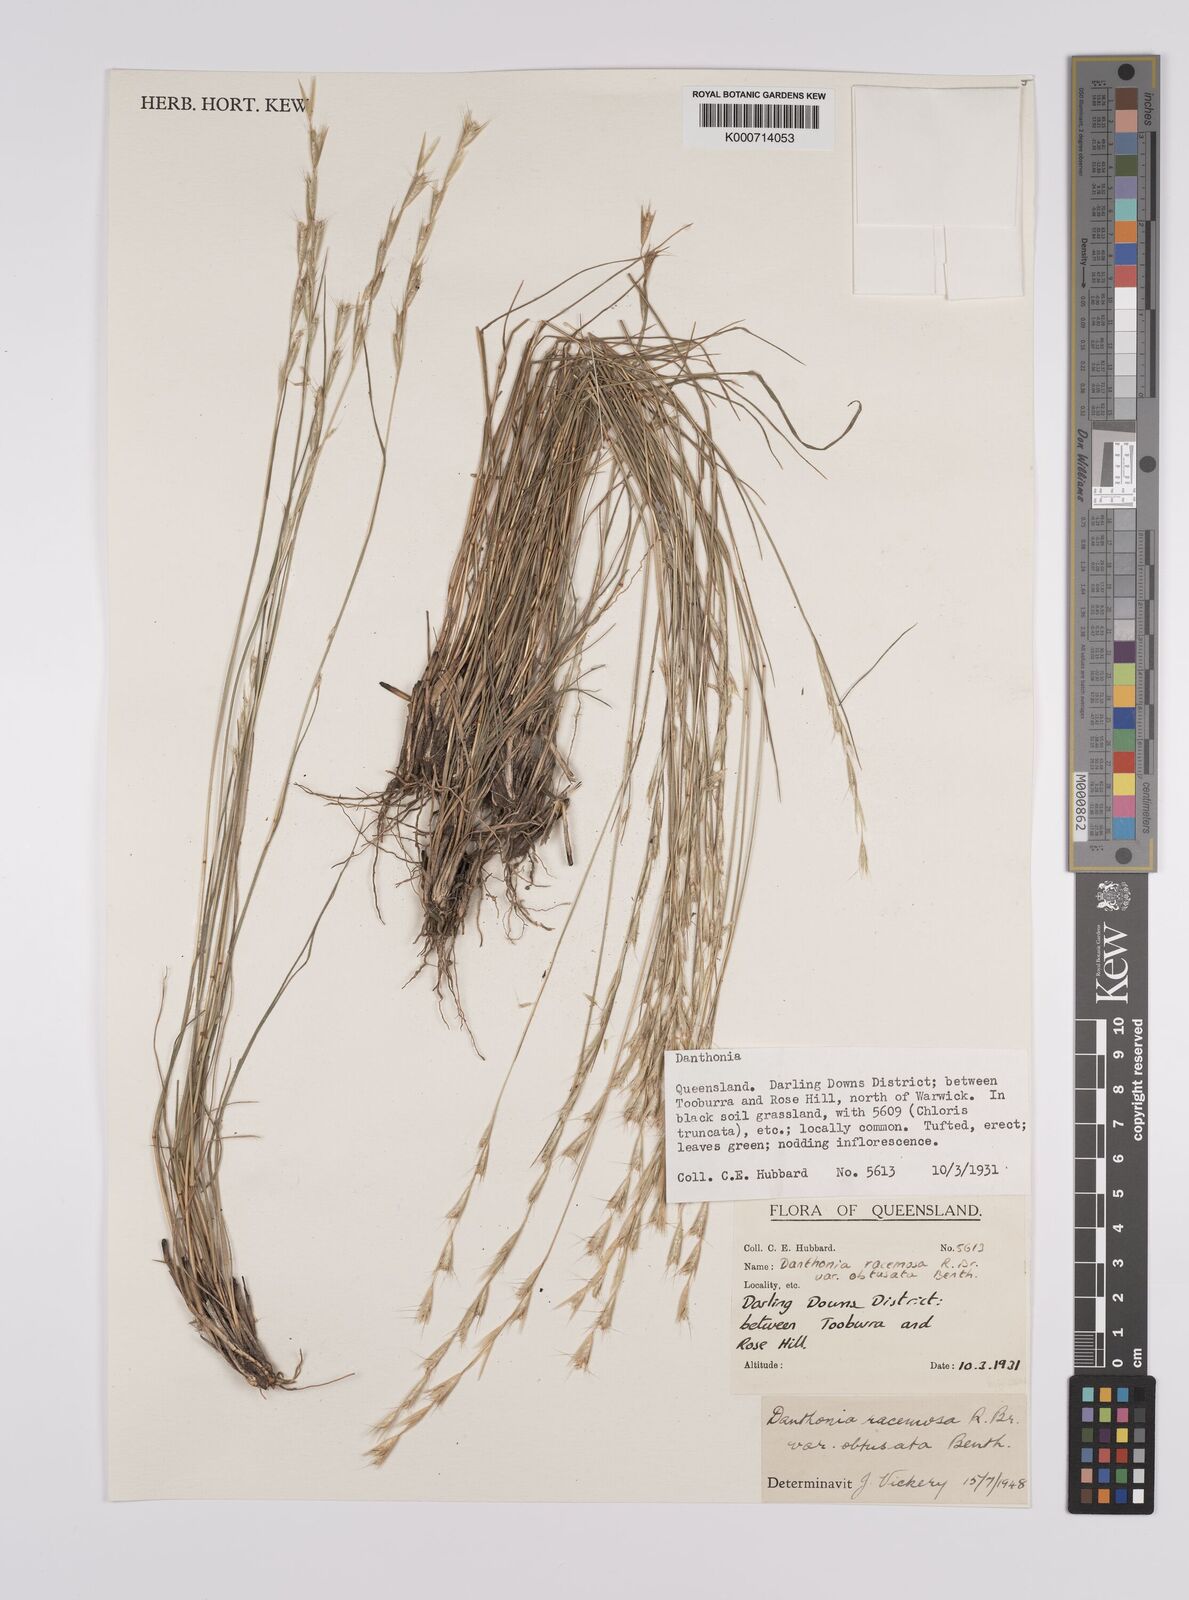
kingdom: Plantae
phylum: Tracheophyta
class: Liliopsida
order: Poales
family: Poaceae
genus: Rytidosperma
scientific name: Rytidosperma racemosum
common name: Wallaby-grass
